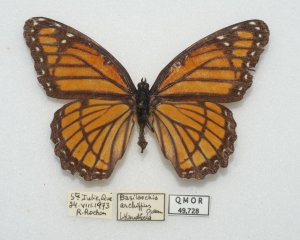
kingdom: Animalia
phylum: Arthropoda
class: Insecta
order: Lepidoptera
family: Nymphalidae
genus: Limenitis
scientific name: Limenitis archippus
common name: Viceroy
